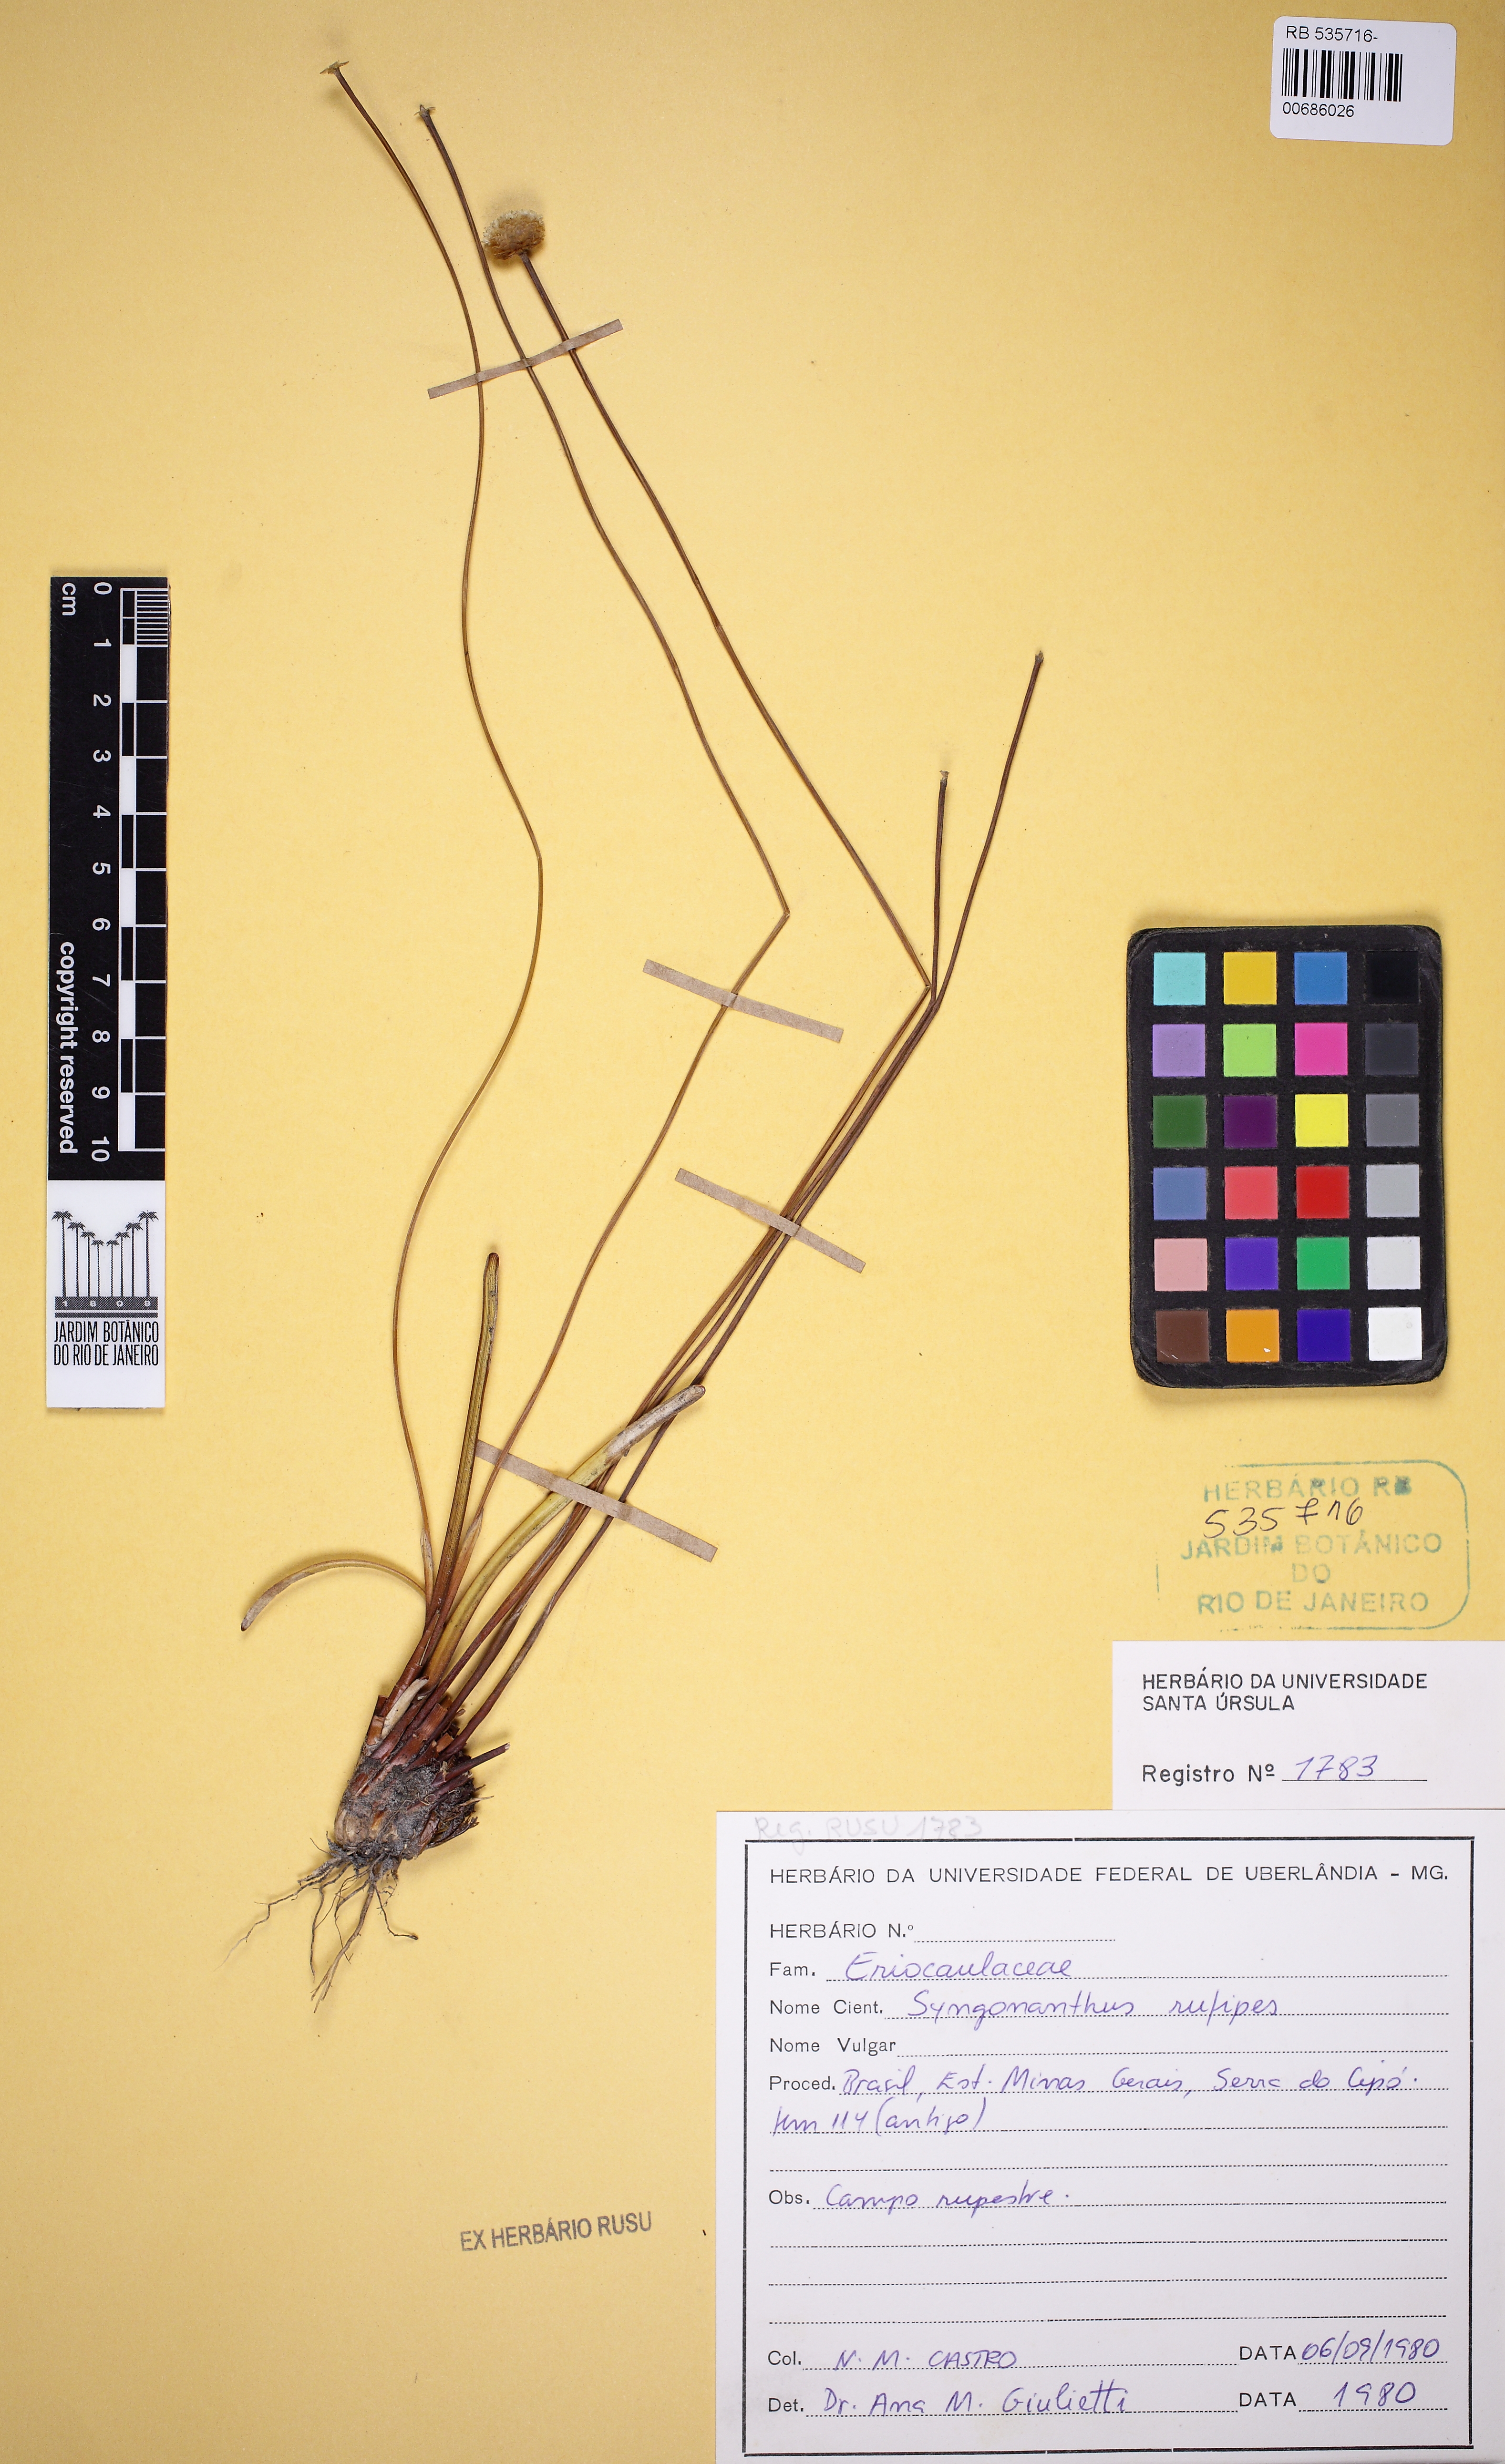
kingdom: Plantae
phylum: Tracheophyta
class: Liliopsida
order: Poales
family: Eriocaulaceae
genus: Comanthera
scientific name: Comanthera cipoensis
